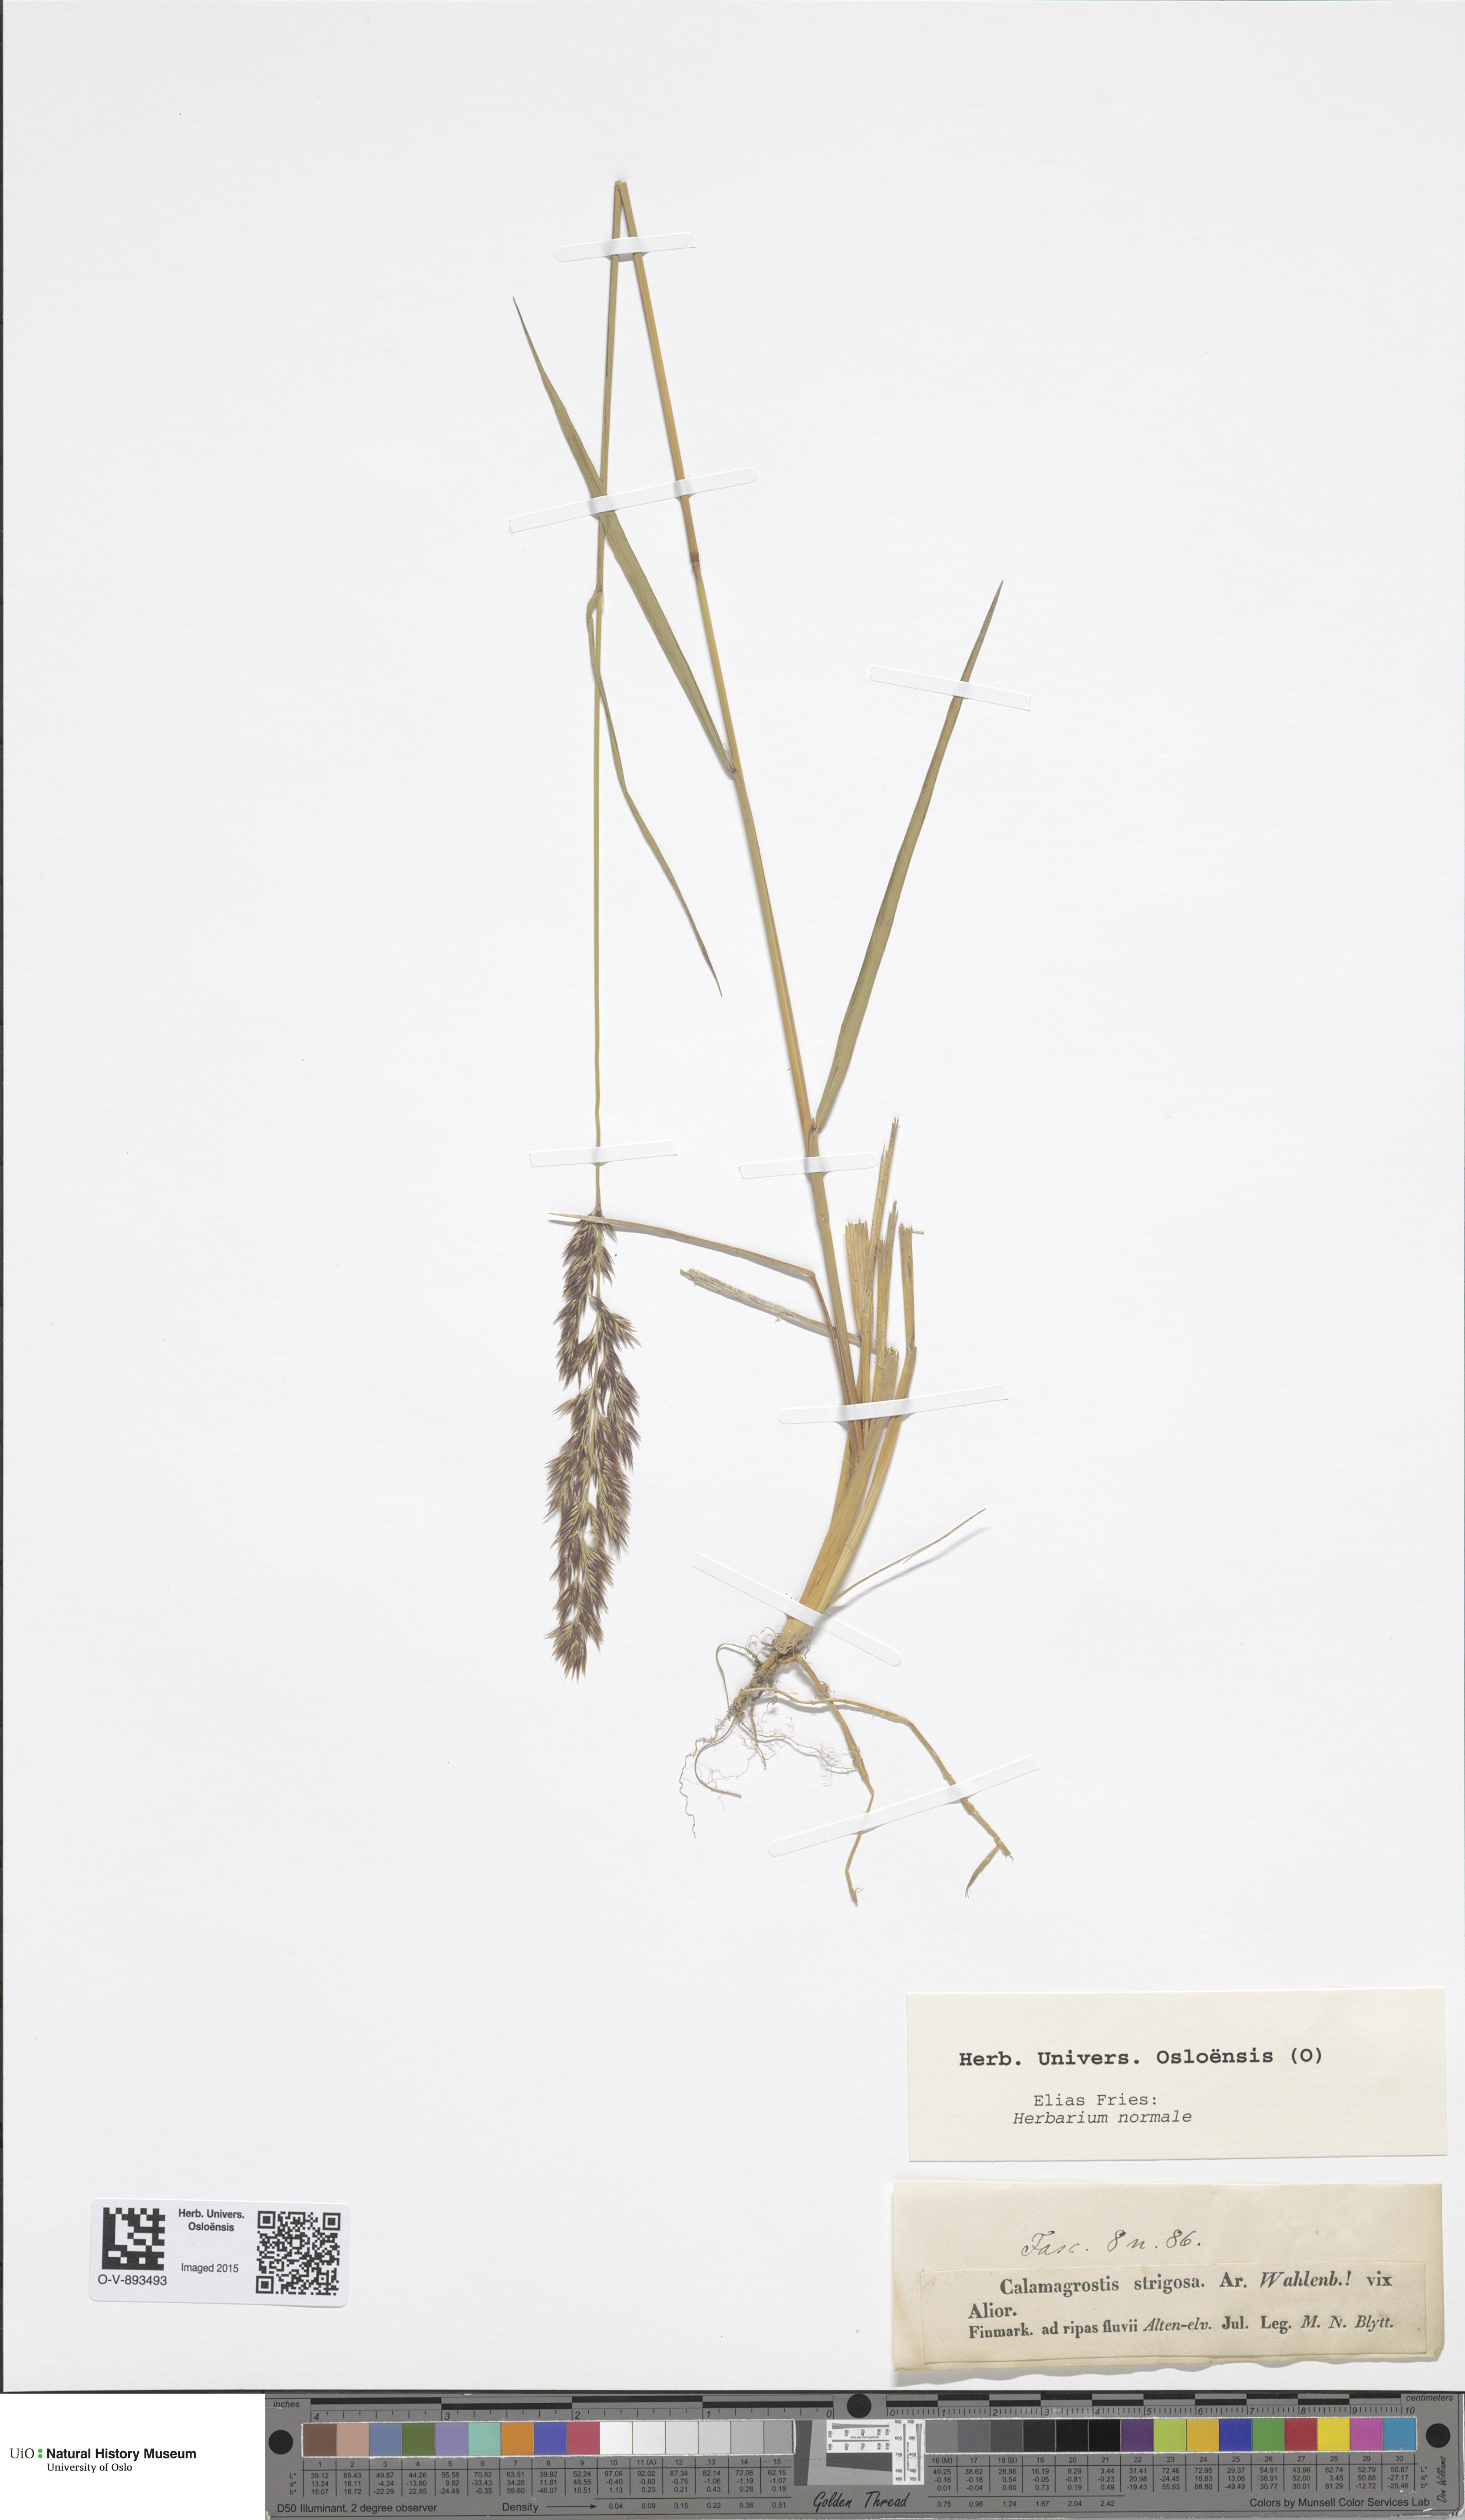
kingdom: Plantae
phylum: Tracheophyta
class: Liliopsida
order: Poales
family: Poaceae
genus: Calamagrostis
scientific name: Calamagrostis strigosa
